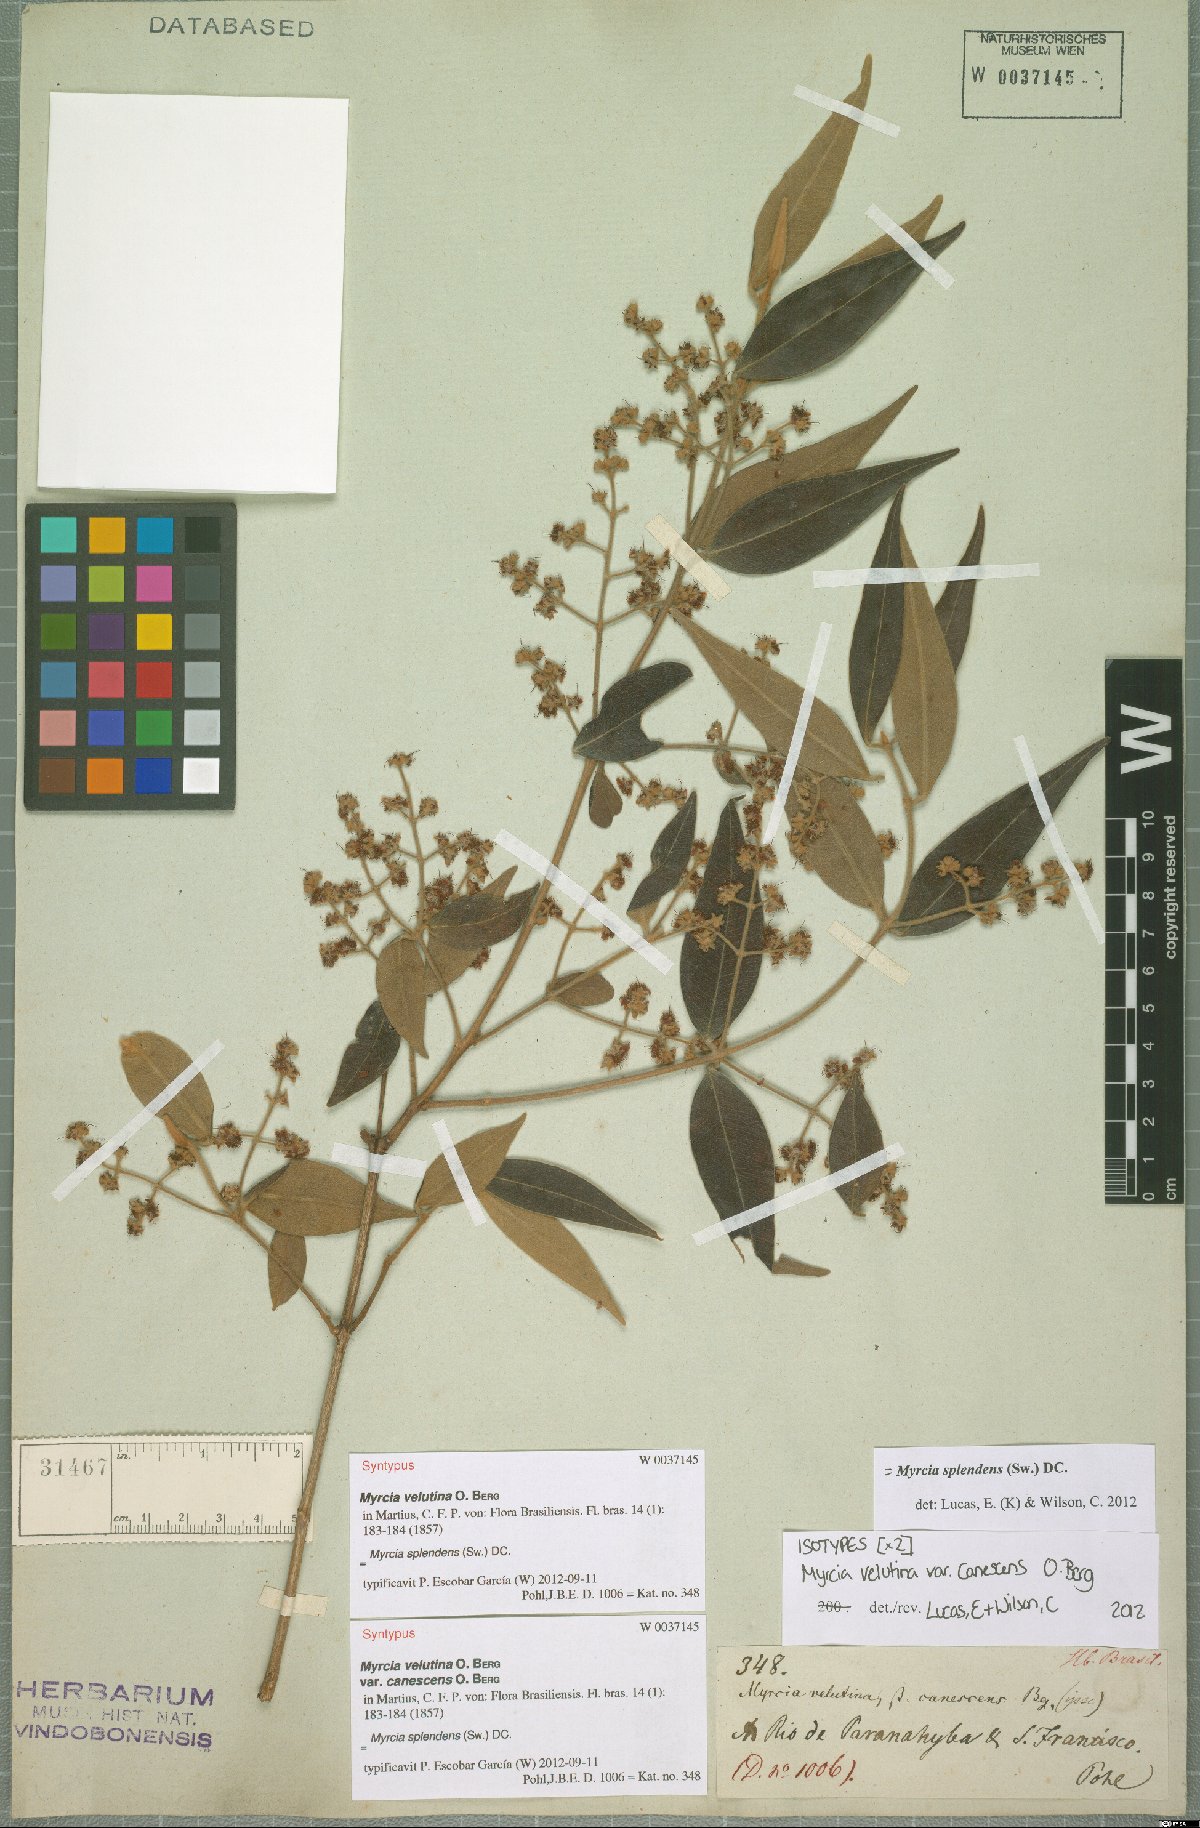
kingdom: Plantae
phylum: Tracheophyta
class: Magnoliopsida
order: Myrtales
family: Myrtaceae
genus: Myrcia
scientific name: Myrcia splendens
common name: Surinam cherry
